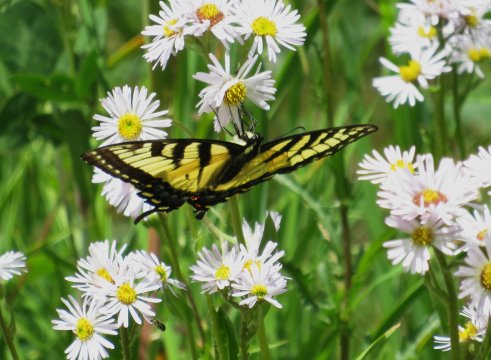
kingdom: Animalia
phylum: Arthropoda
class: Insecta
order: Lepidoptera
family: Papilionidae
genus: Pterourus
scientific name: Pterourus glaucus
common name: Eastern Tiger Swallowtail
